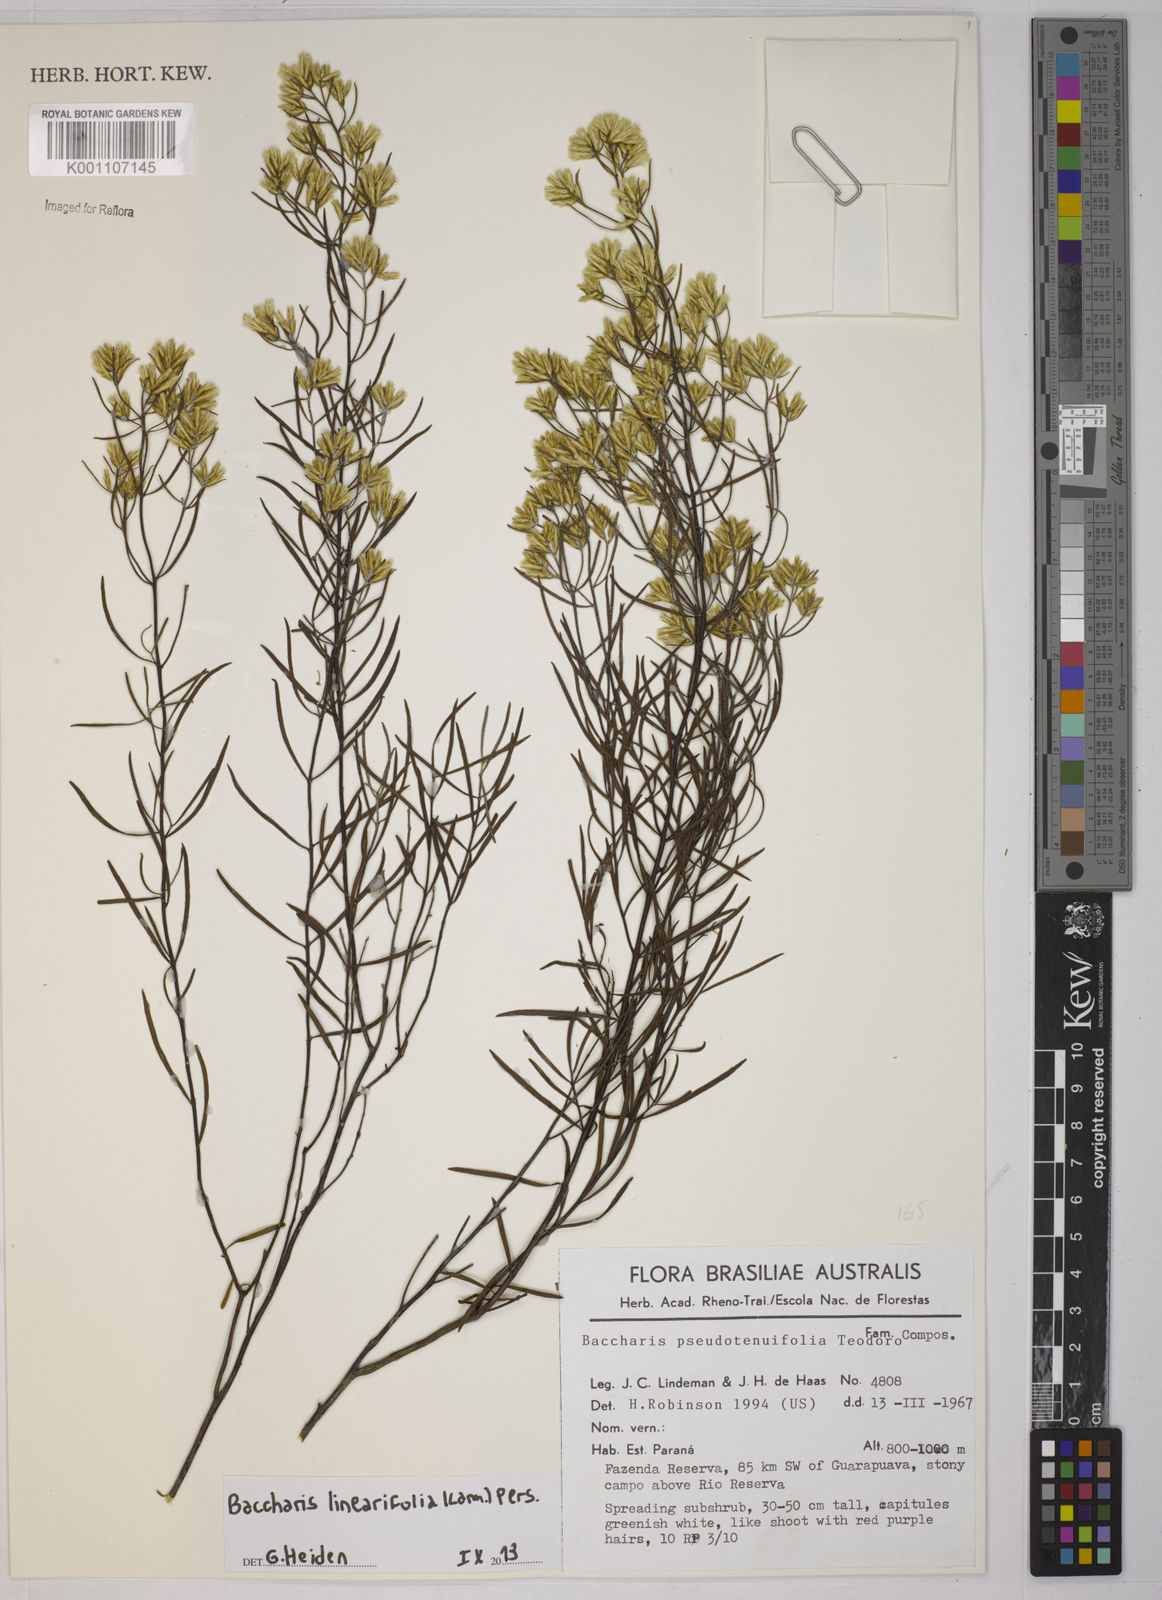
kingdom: Plantae
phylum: Tracheophyta
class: Magnoliopsida
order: Asterales
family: Asteraceae
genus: Baccharis
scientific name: Baccharis linearifolia
